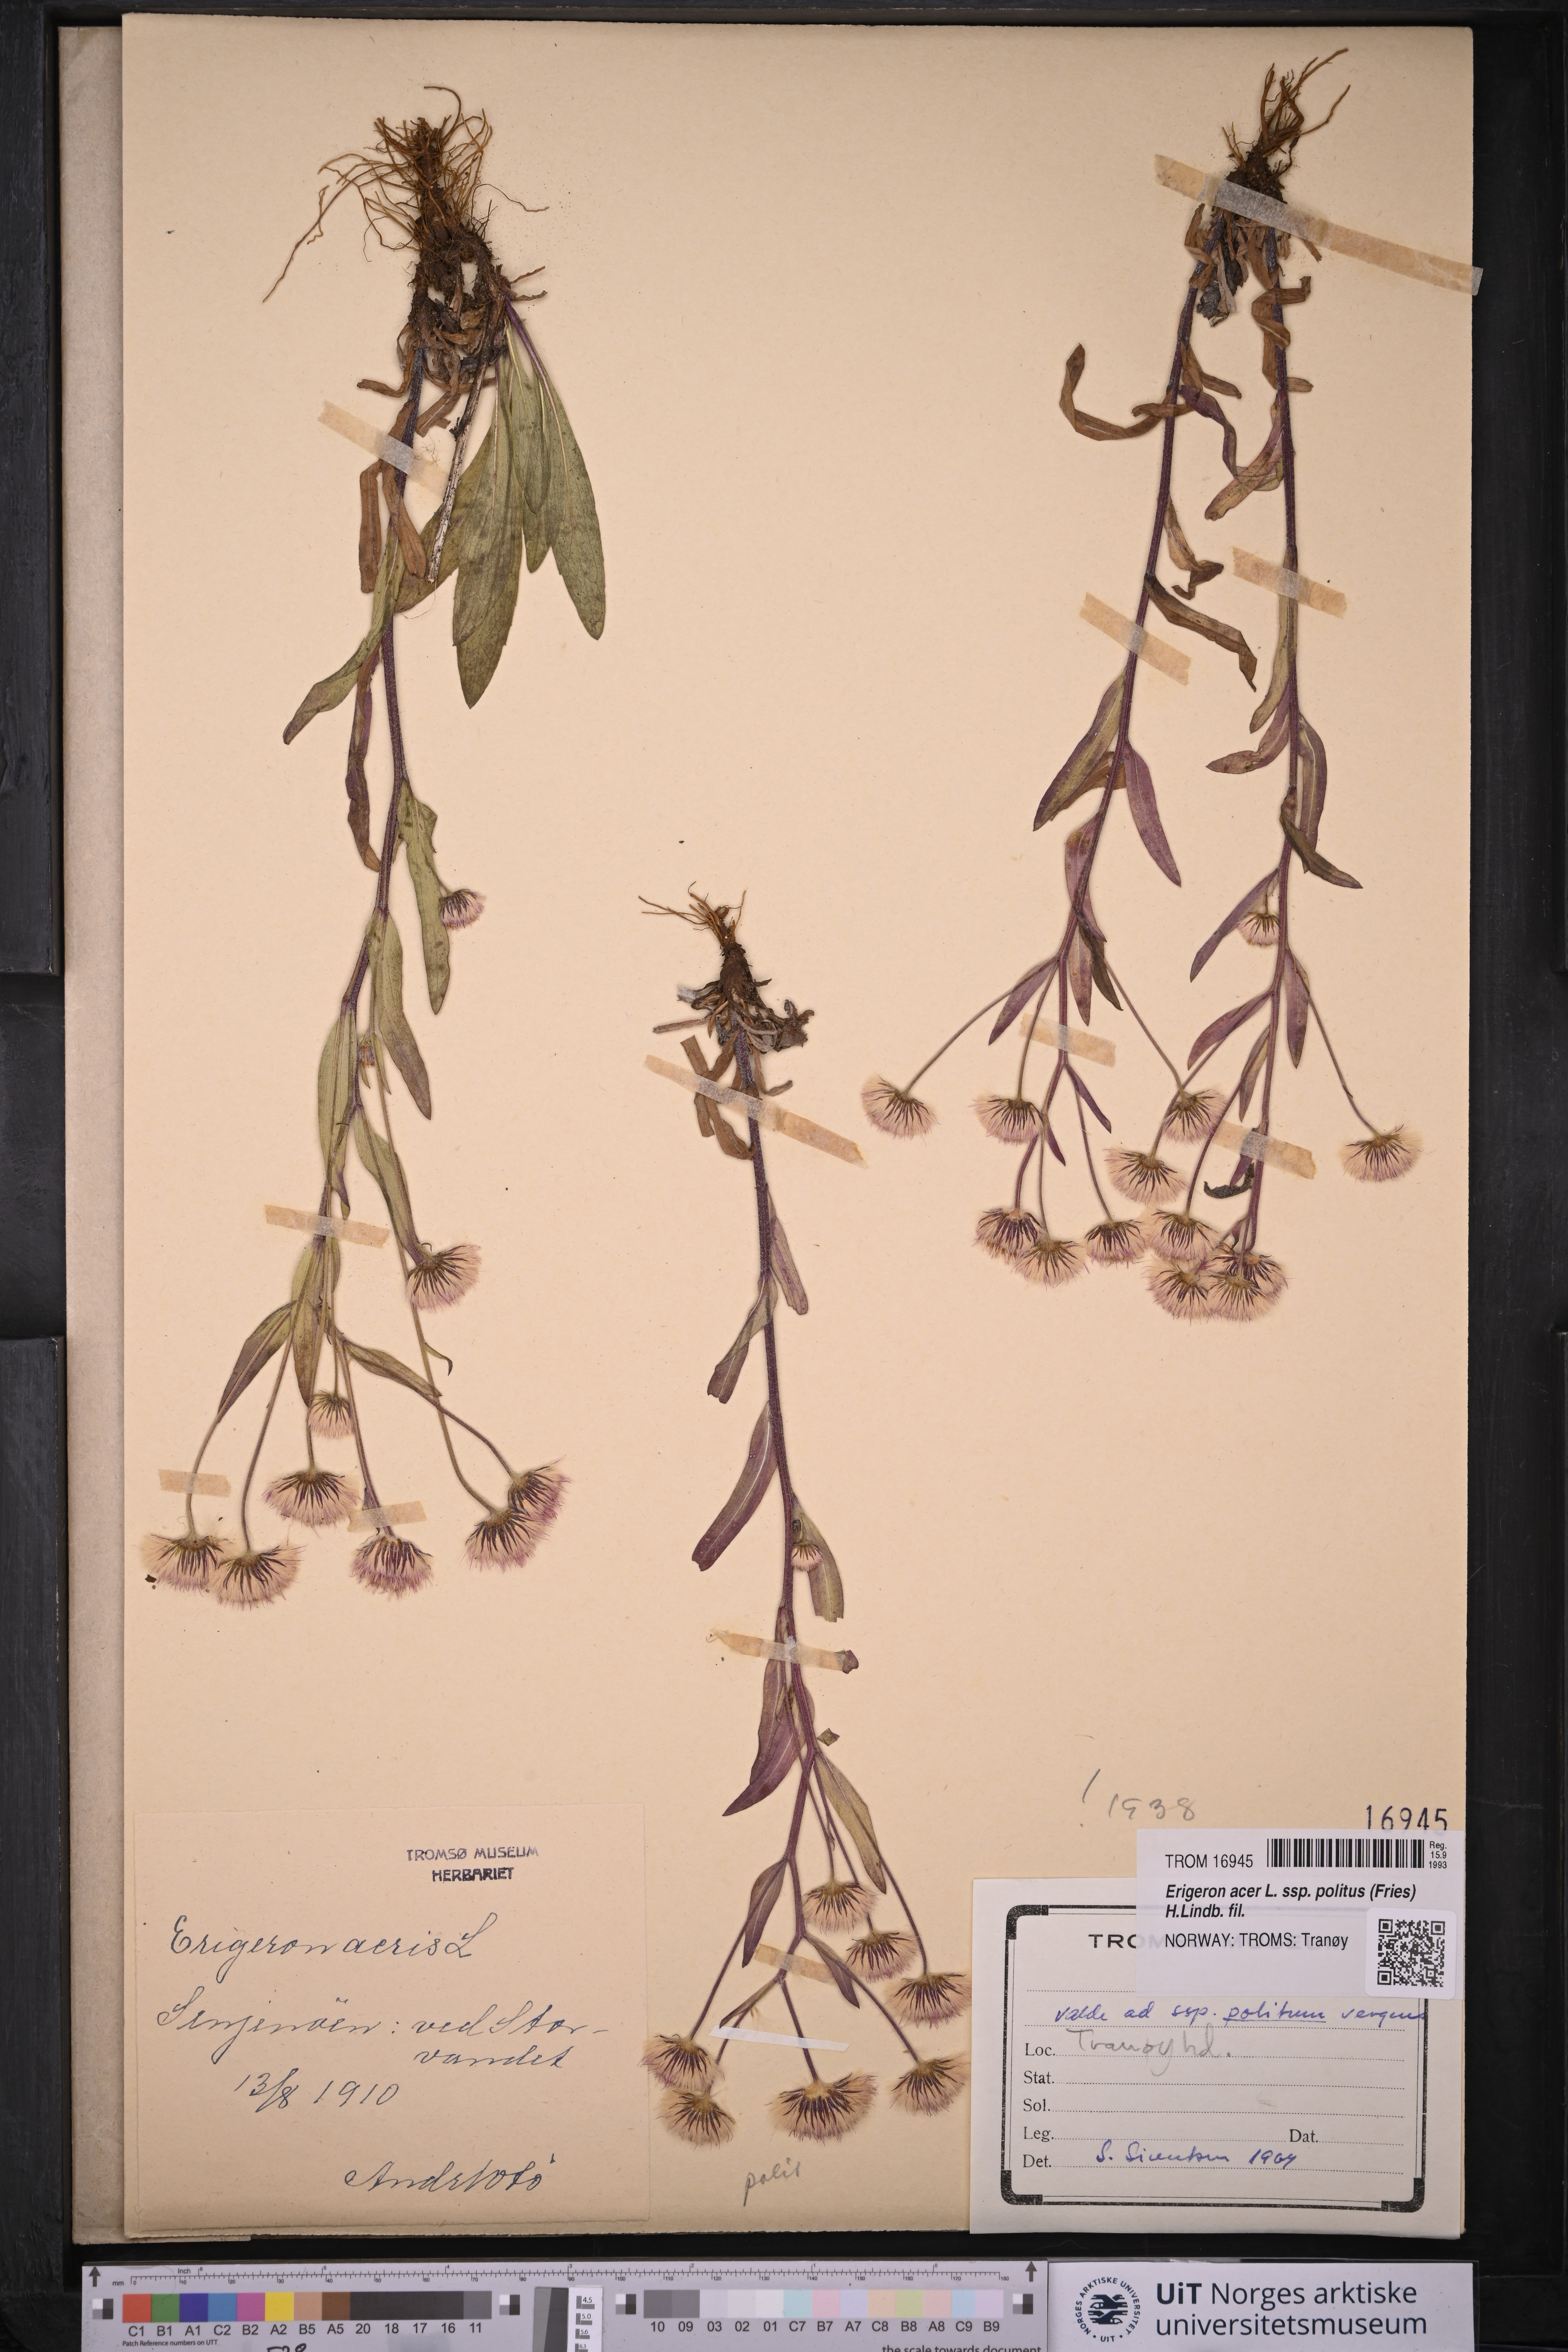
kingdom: Plantae
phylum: Tracheophyta
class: Magnoliopsida
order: Asterales
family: Asteraceae
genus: Erigeron
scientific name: Erigeron politus
